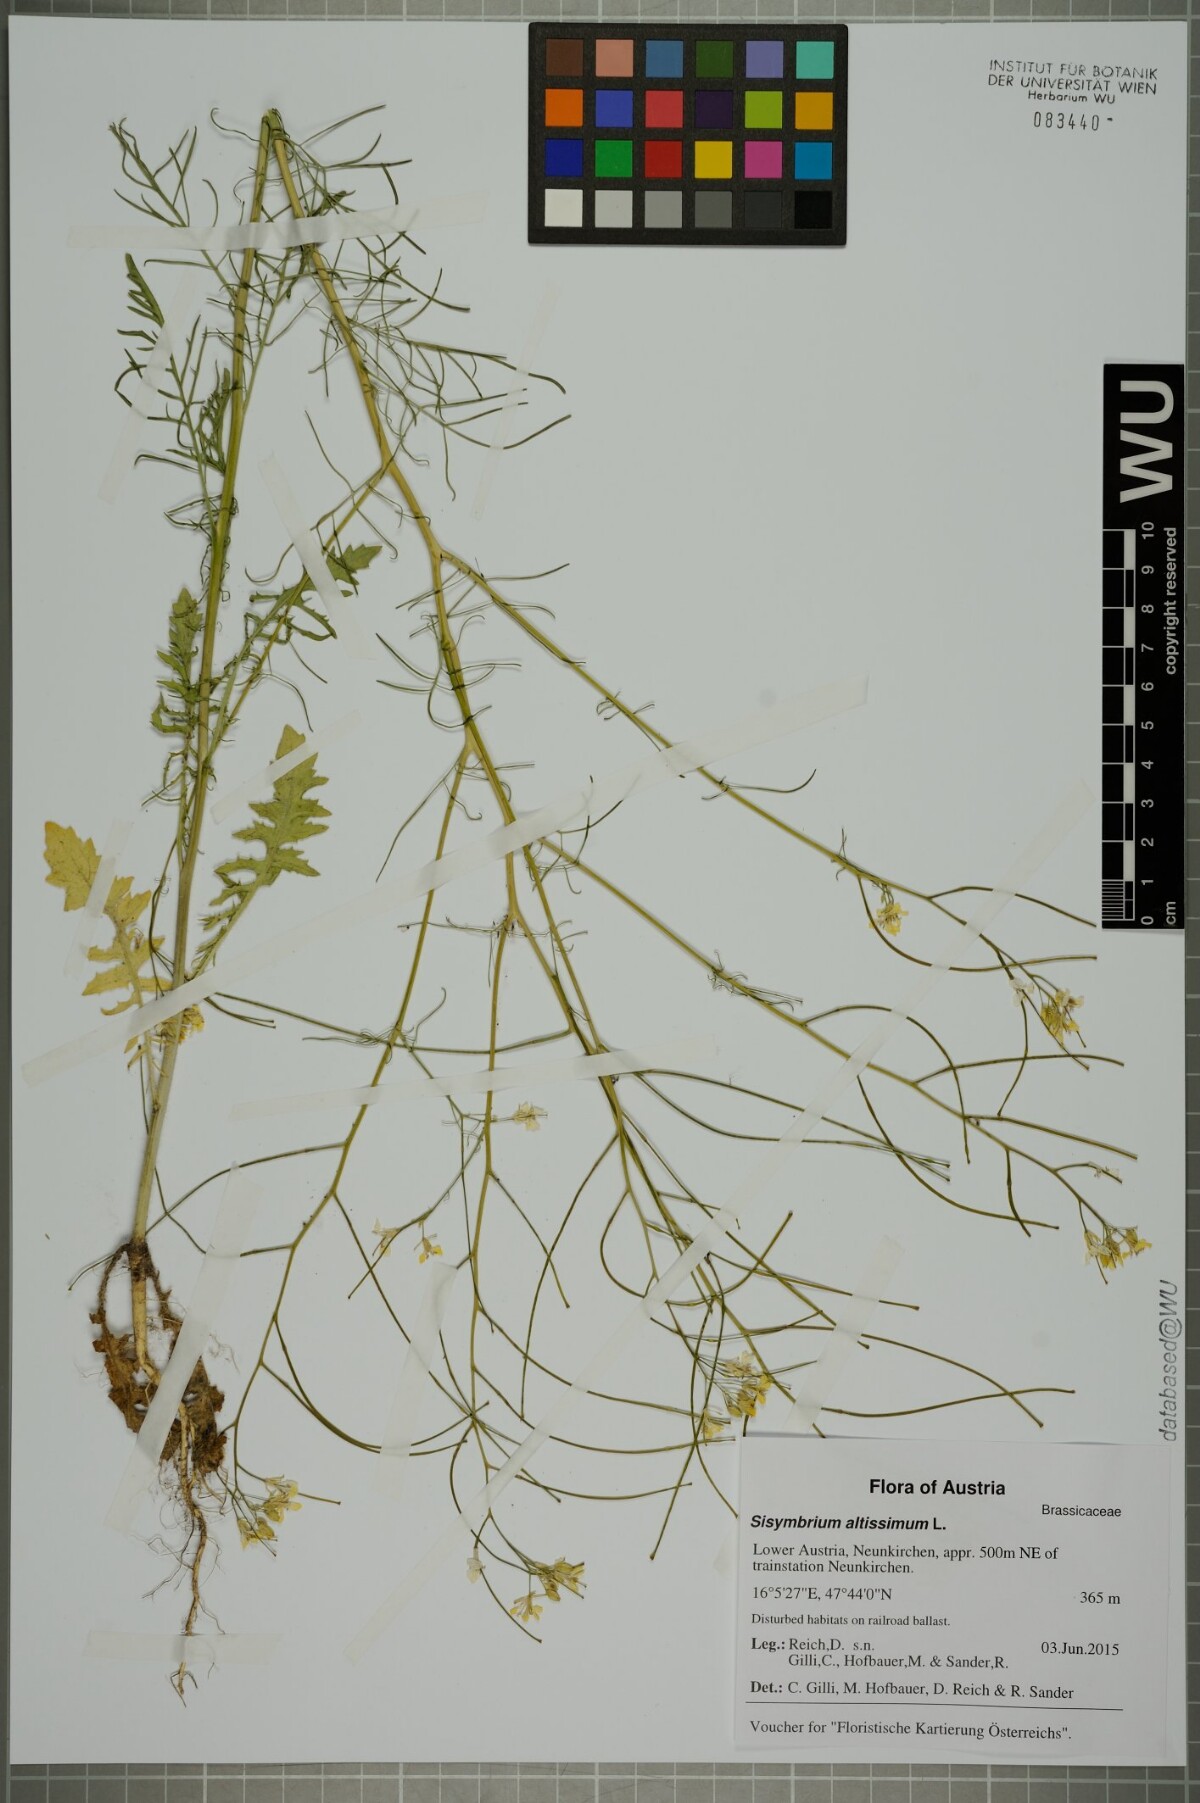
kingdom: Plantae
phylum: Tracheophyta
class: Magnoliopsida
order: Brassicales
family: Brassicaceae
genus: Sisymbrium
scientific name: Sisymbrium altissimum
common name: Tall rocket
